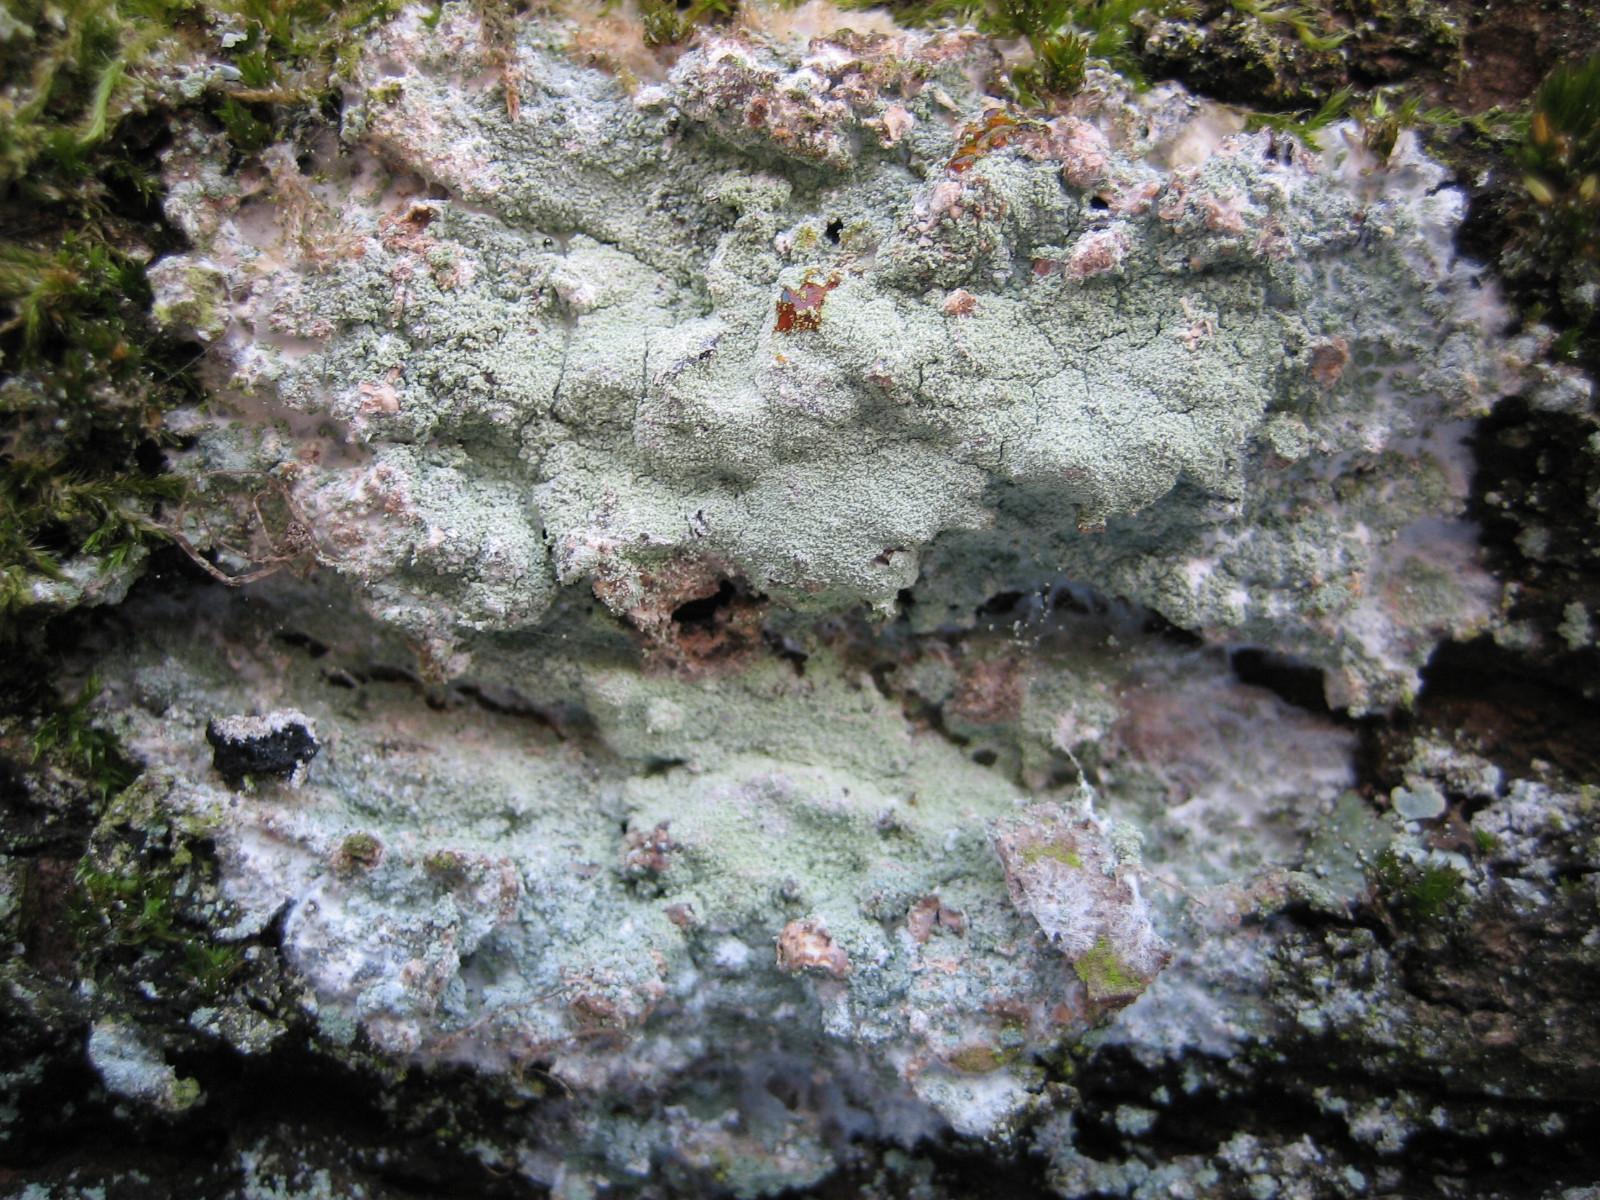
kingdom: Fungi
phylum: Ascomycota
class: Lecanoromycetes
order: Ostropales
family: Phlyctidaceae
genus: Phlyctis
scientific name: Phlyctis argena
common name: almindelig sølvlav
